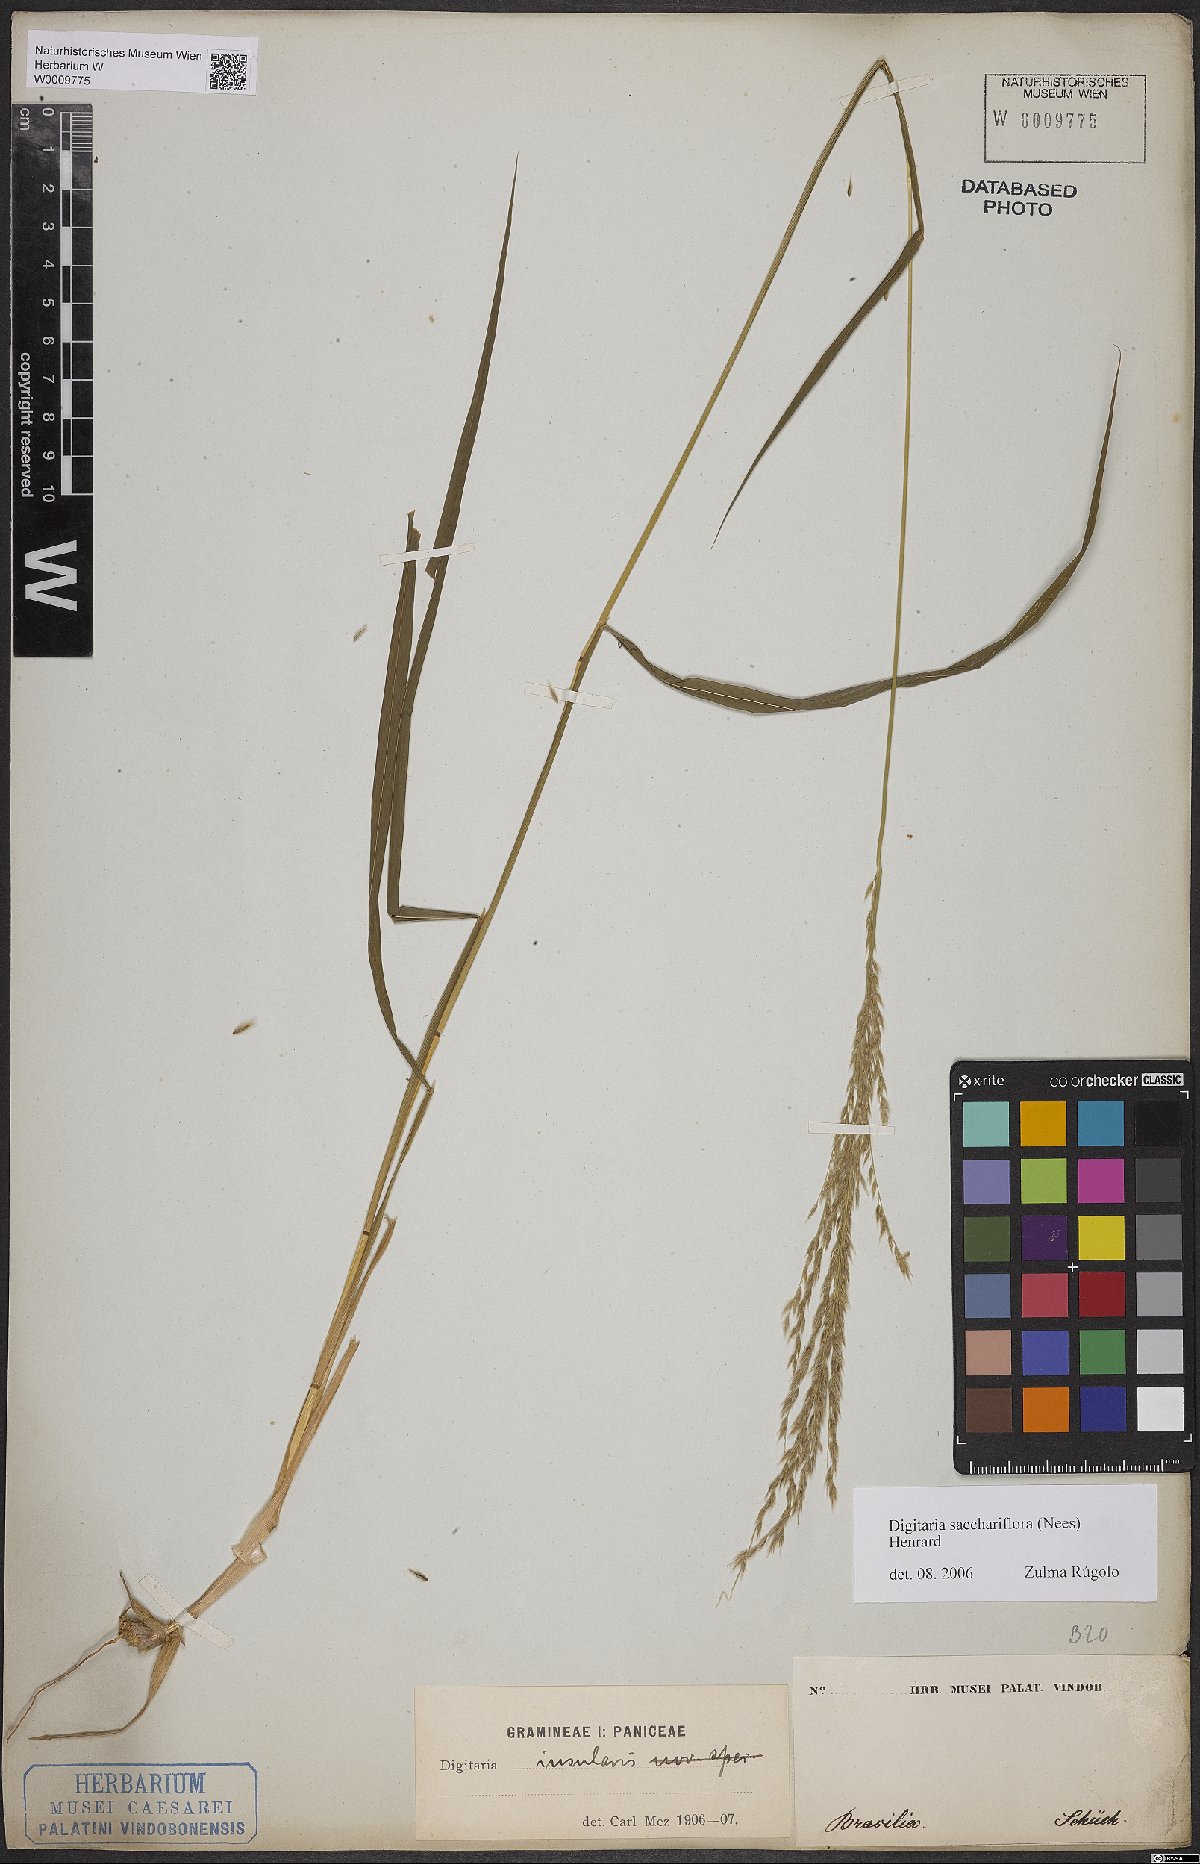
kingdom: Plantae
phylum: Tracheophyta
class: Liliopsida
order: Poales
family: Poaceae
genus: Digitaria
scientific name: Digitaria sacchariflora
